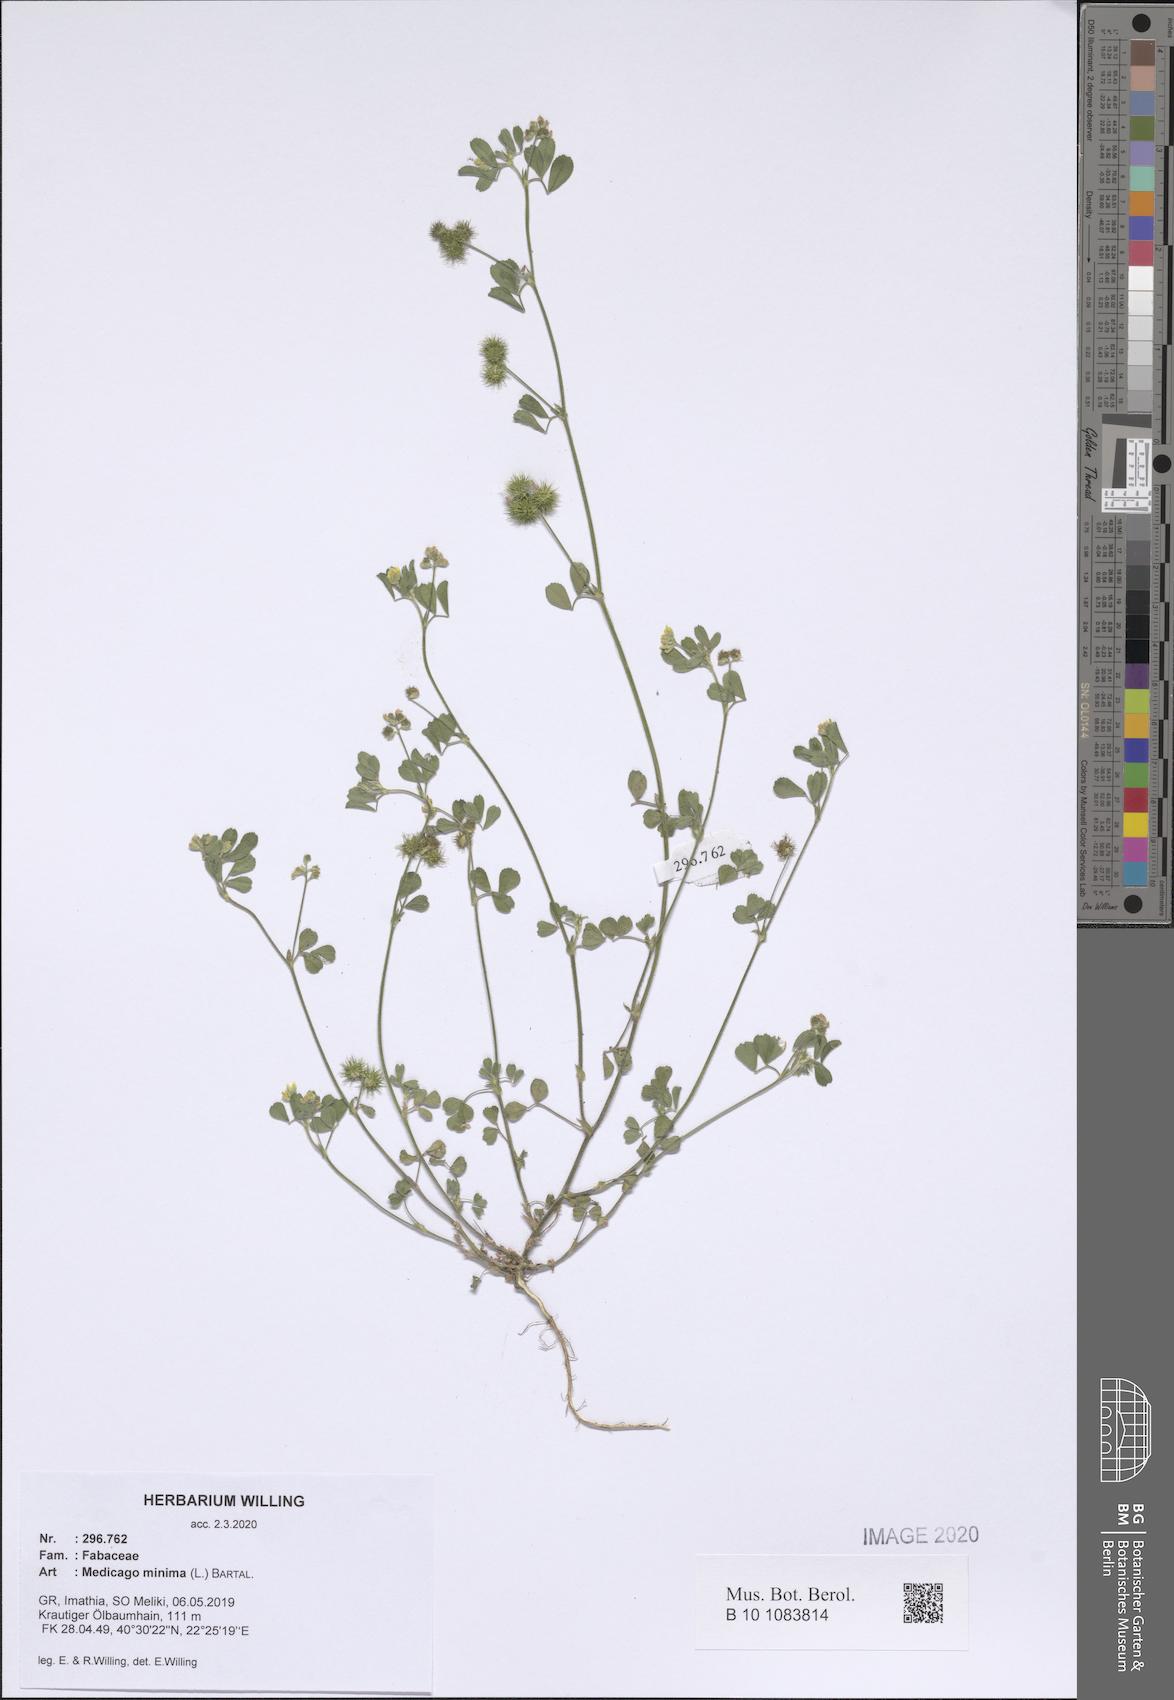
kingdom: Plantae
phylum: Tracheophyta
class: Magnoliopsida
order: Fabales
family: Fabaceae
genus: Medicago
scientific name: Medicago minima
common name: Little bur-clover
